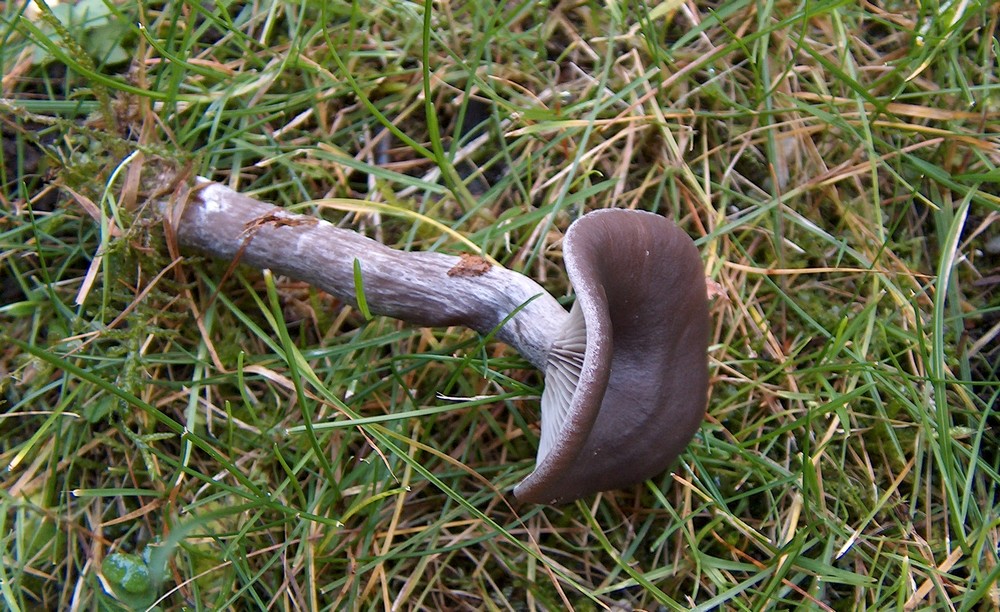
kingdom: Fungi
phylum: Basidiomycota
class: Agaricomycetes
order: Agaricales
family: Pseudoclitocybaceae
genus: Pseudoclitocybe
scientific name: Pseudoclitocybe cyathiformis
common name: almindelig bægertragthat
